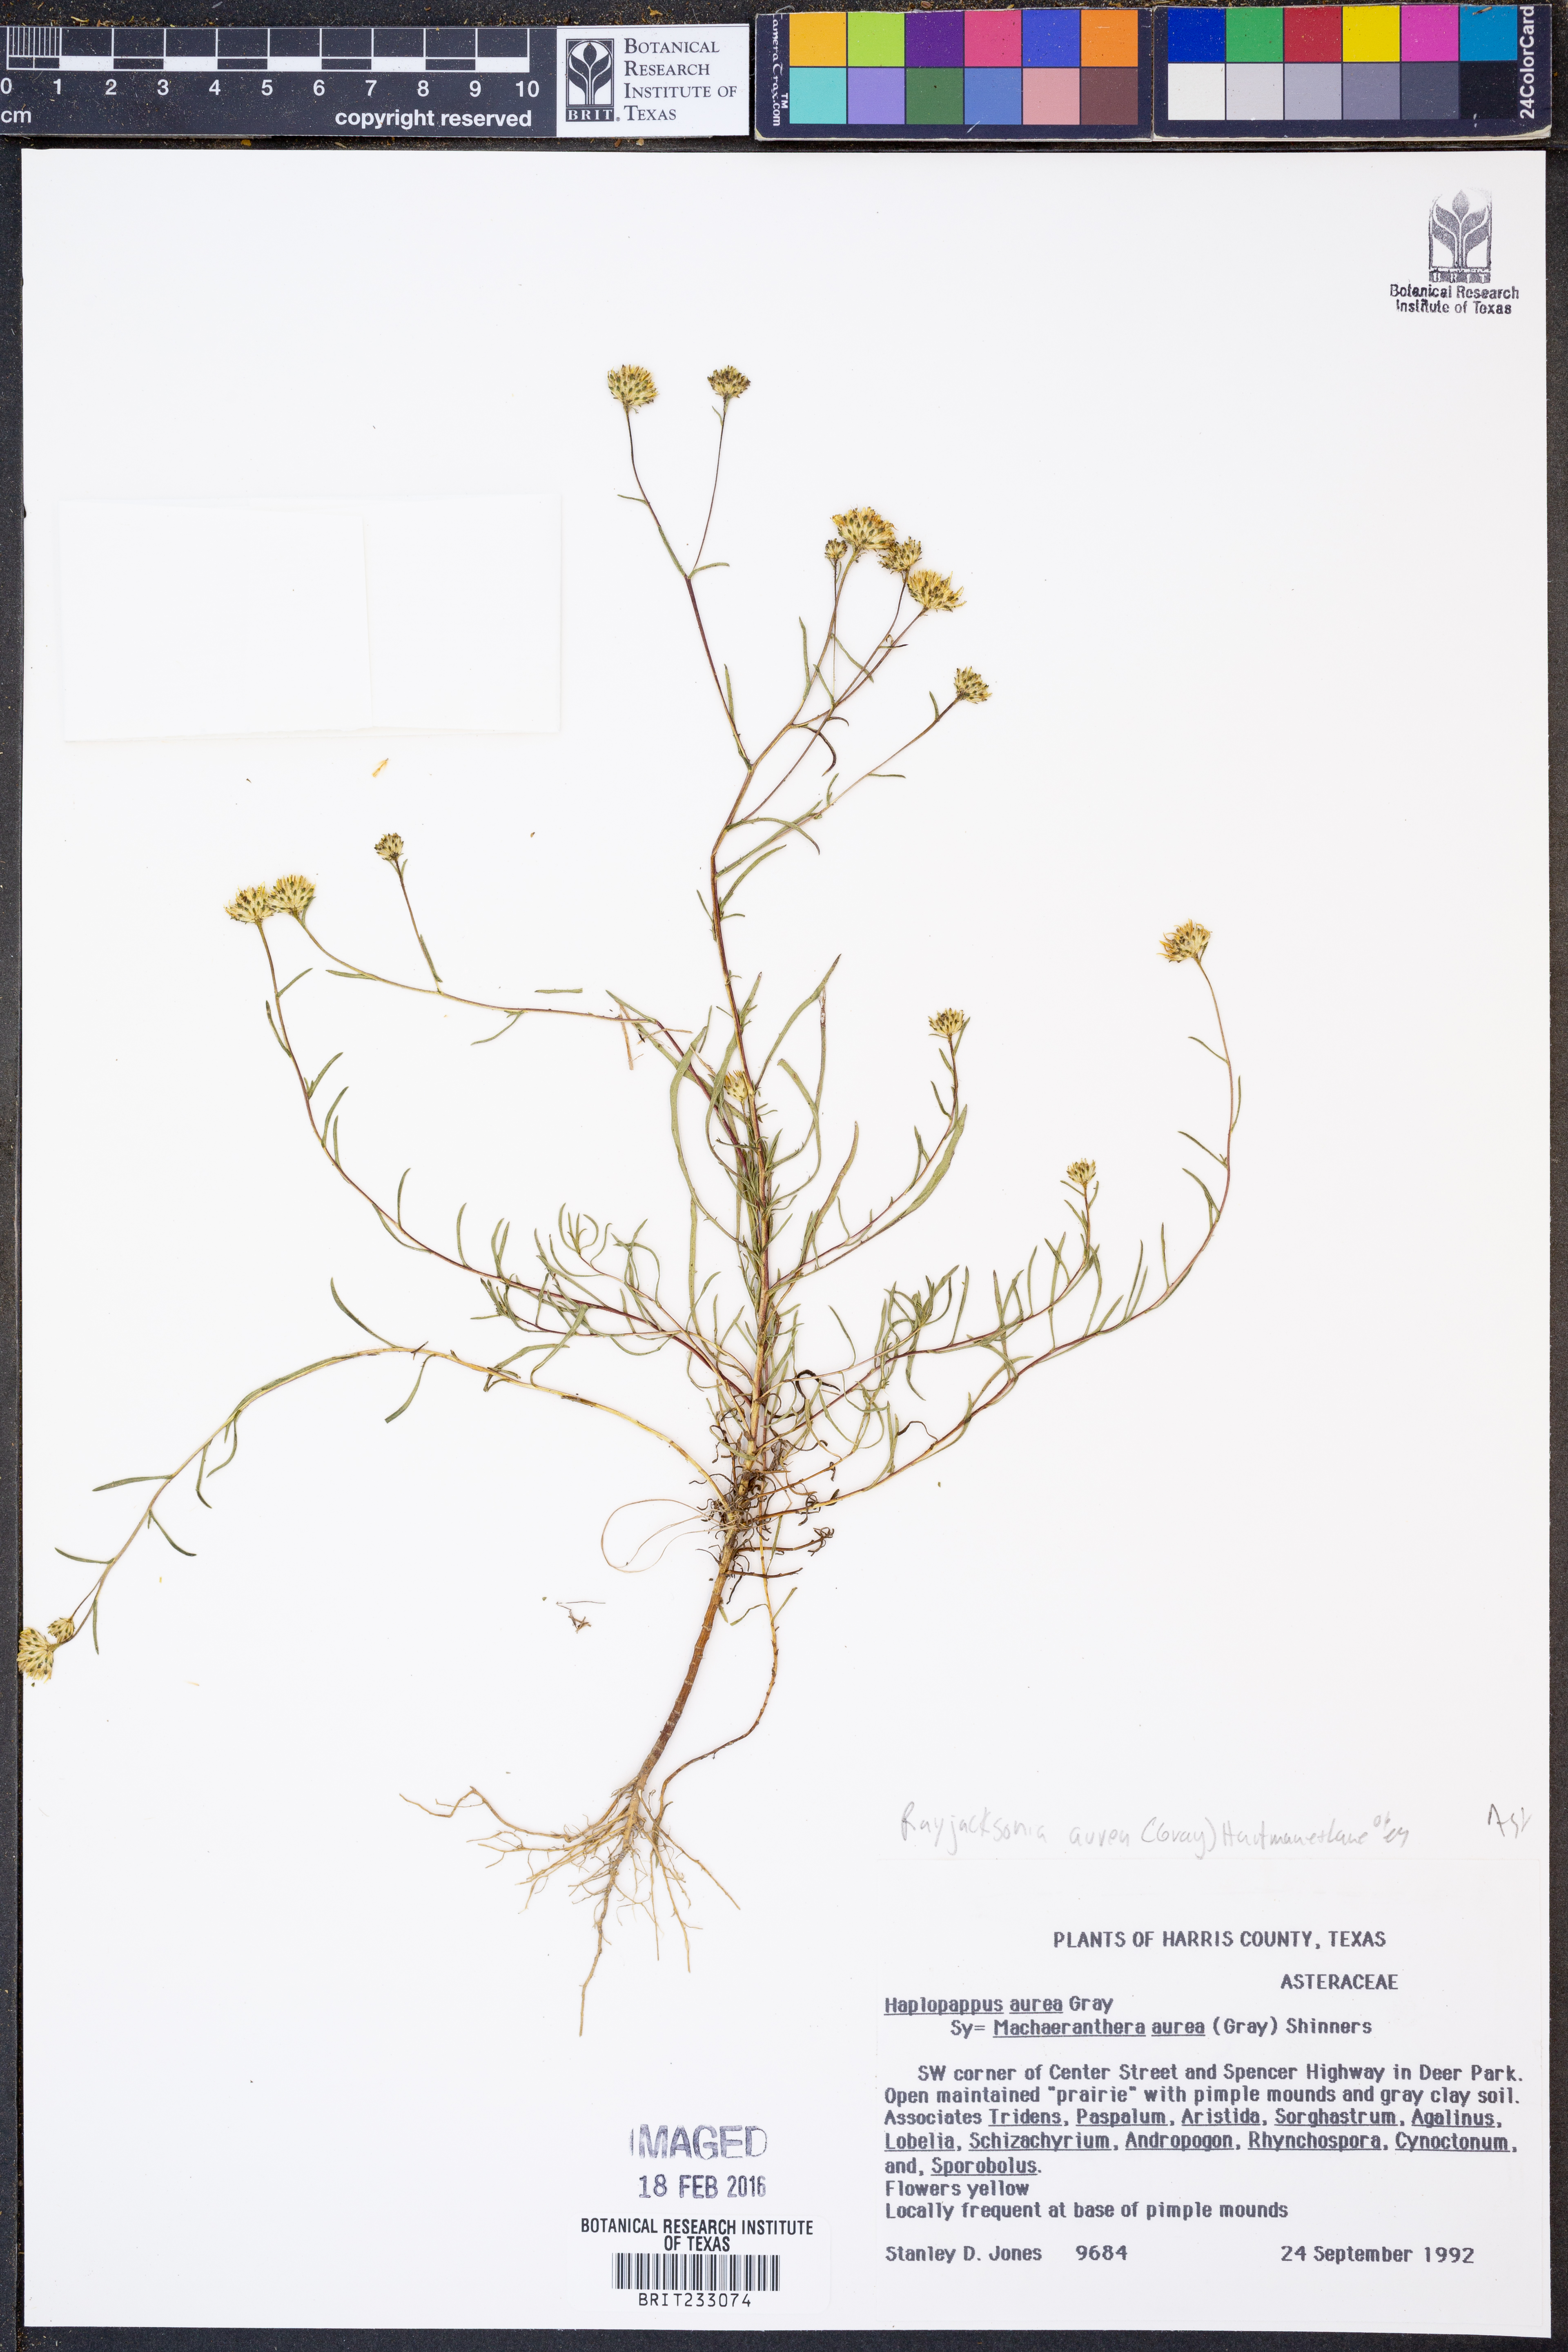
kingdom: Plantae
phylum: Tracheophyta
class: Magnoliopsida
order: Asterales
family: Asteraceae
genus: Rayjacksonia
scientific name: Rayjacksonia aurea
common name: Houston camphor daisy
